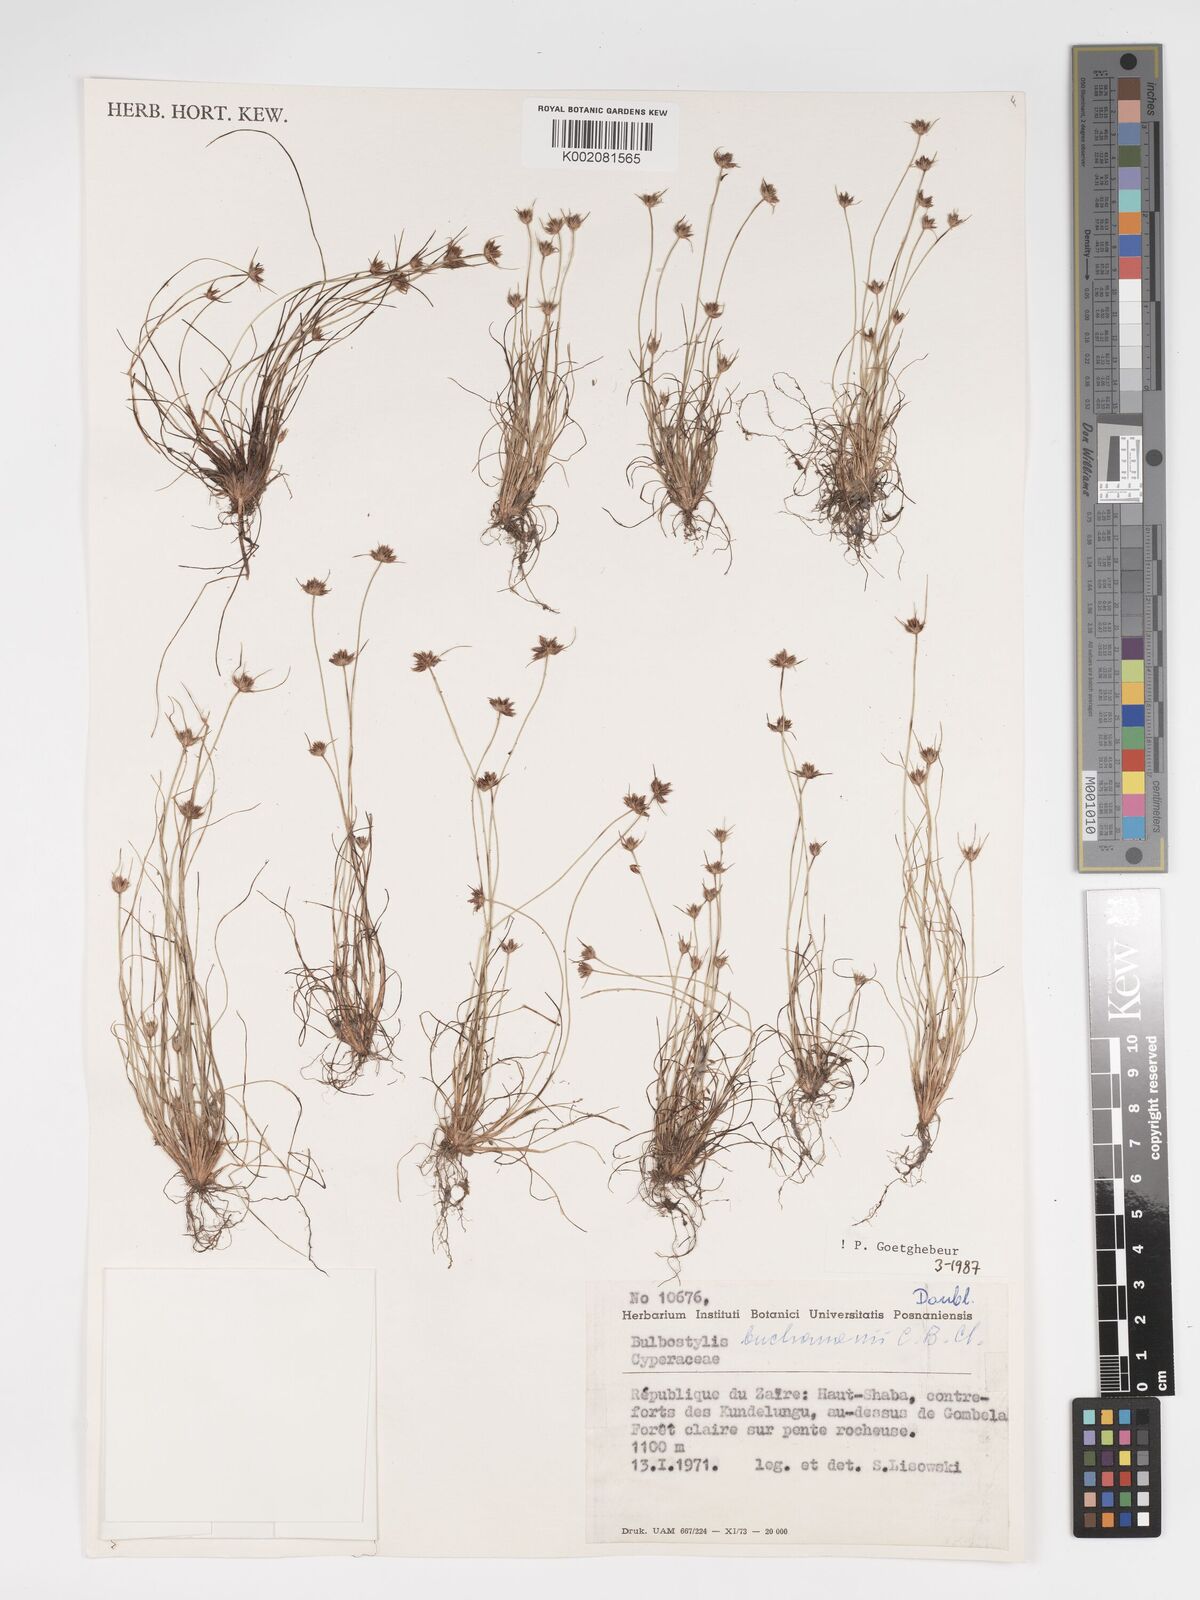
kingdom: Plantae
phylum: Tracheophyta
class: Liliopsida
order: Poales
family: Cyperaceae
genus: Bulbostylis
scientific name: Bulbostylis buchananii
